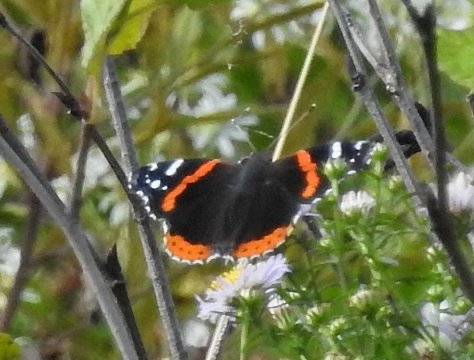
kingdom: Animalia
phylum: Arthropoda
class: Insecta
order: Lepidoptera
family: Nymphalidae
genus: Vanessa
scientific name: Vanessa atalanta
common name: Red Admiral
